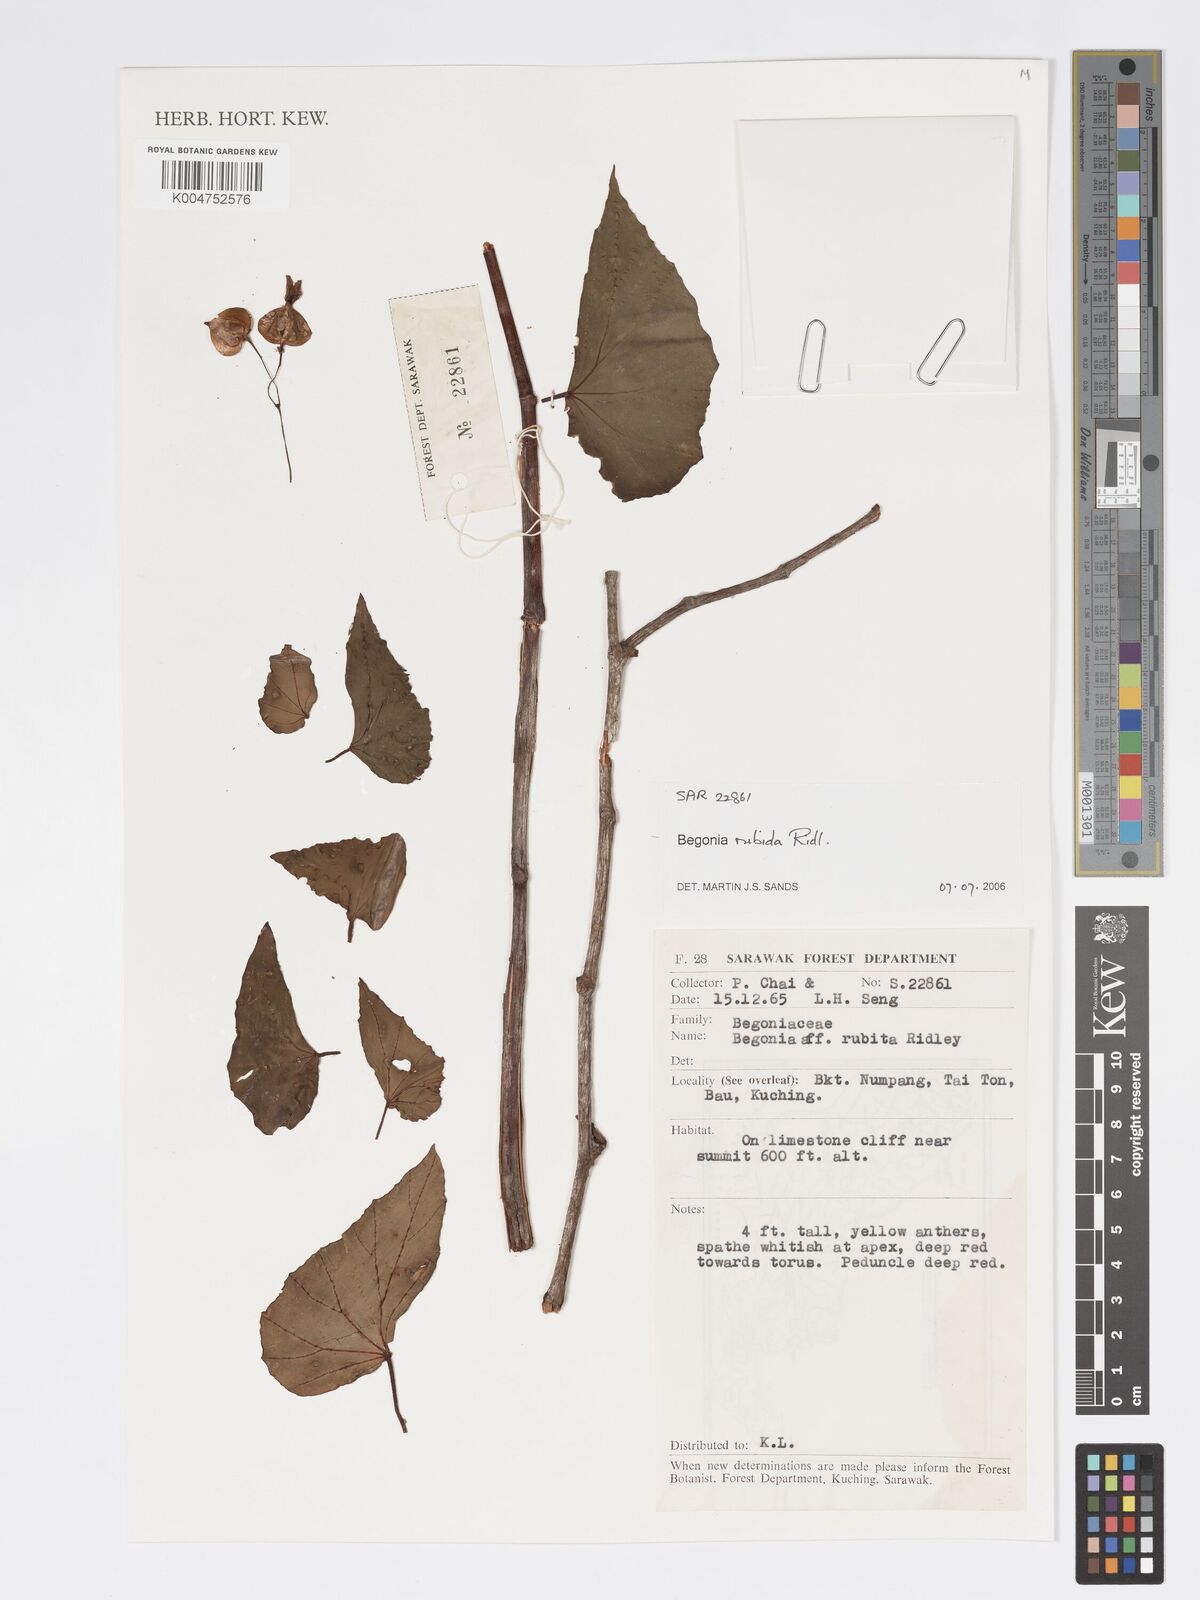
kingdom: Plantae
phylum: Tracheophyta
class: Magnoliopsida
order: Cucurbitales
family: Begoniaceae
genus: Begonia
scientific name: Begonia rubida
